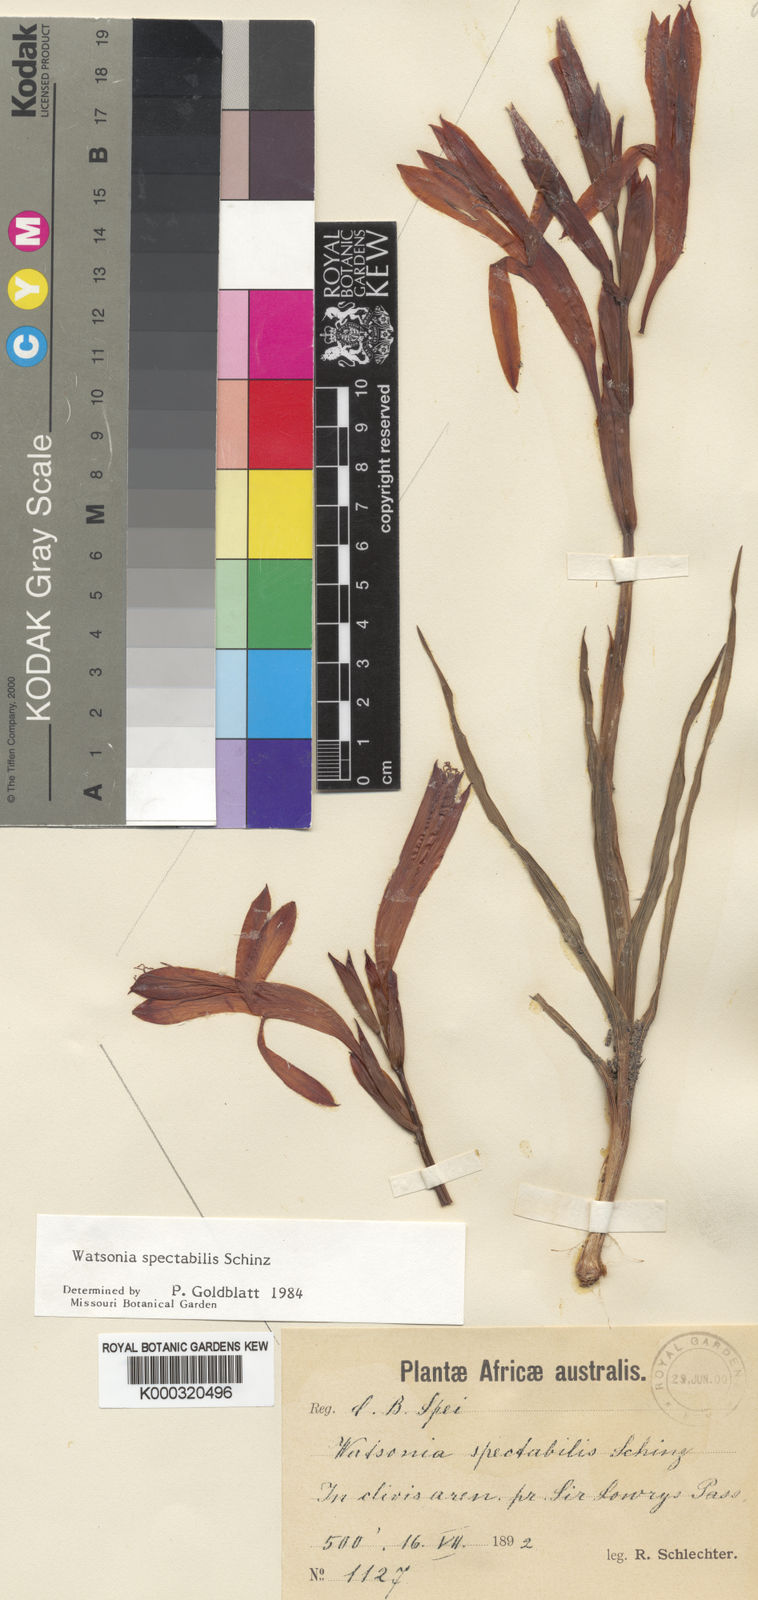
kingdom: Plantae
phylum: Tracheophyta
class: Liliopsida
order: Asparagales
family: Iridaceae
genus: Watsonia
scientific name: Watsonia spectabilis
